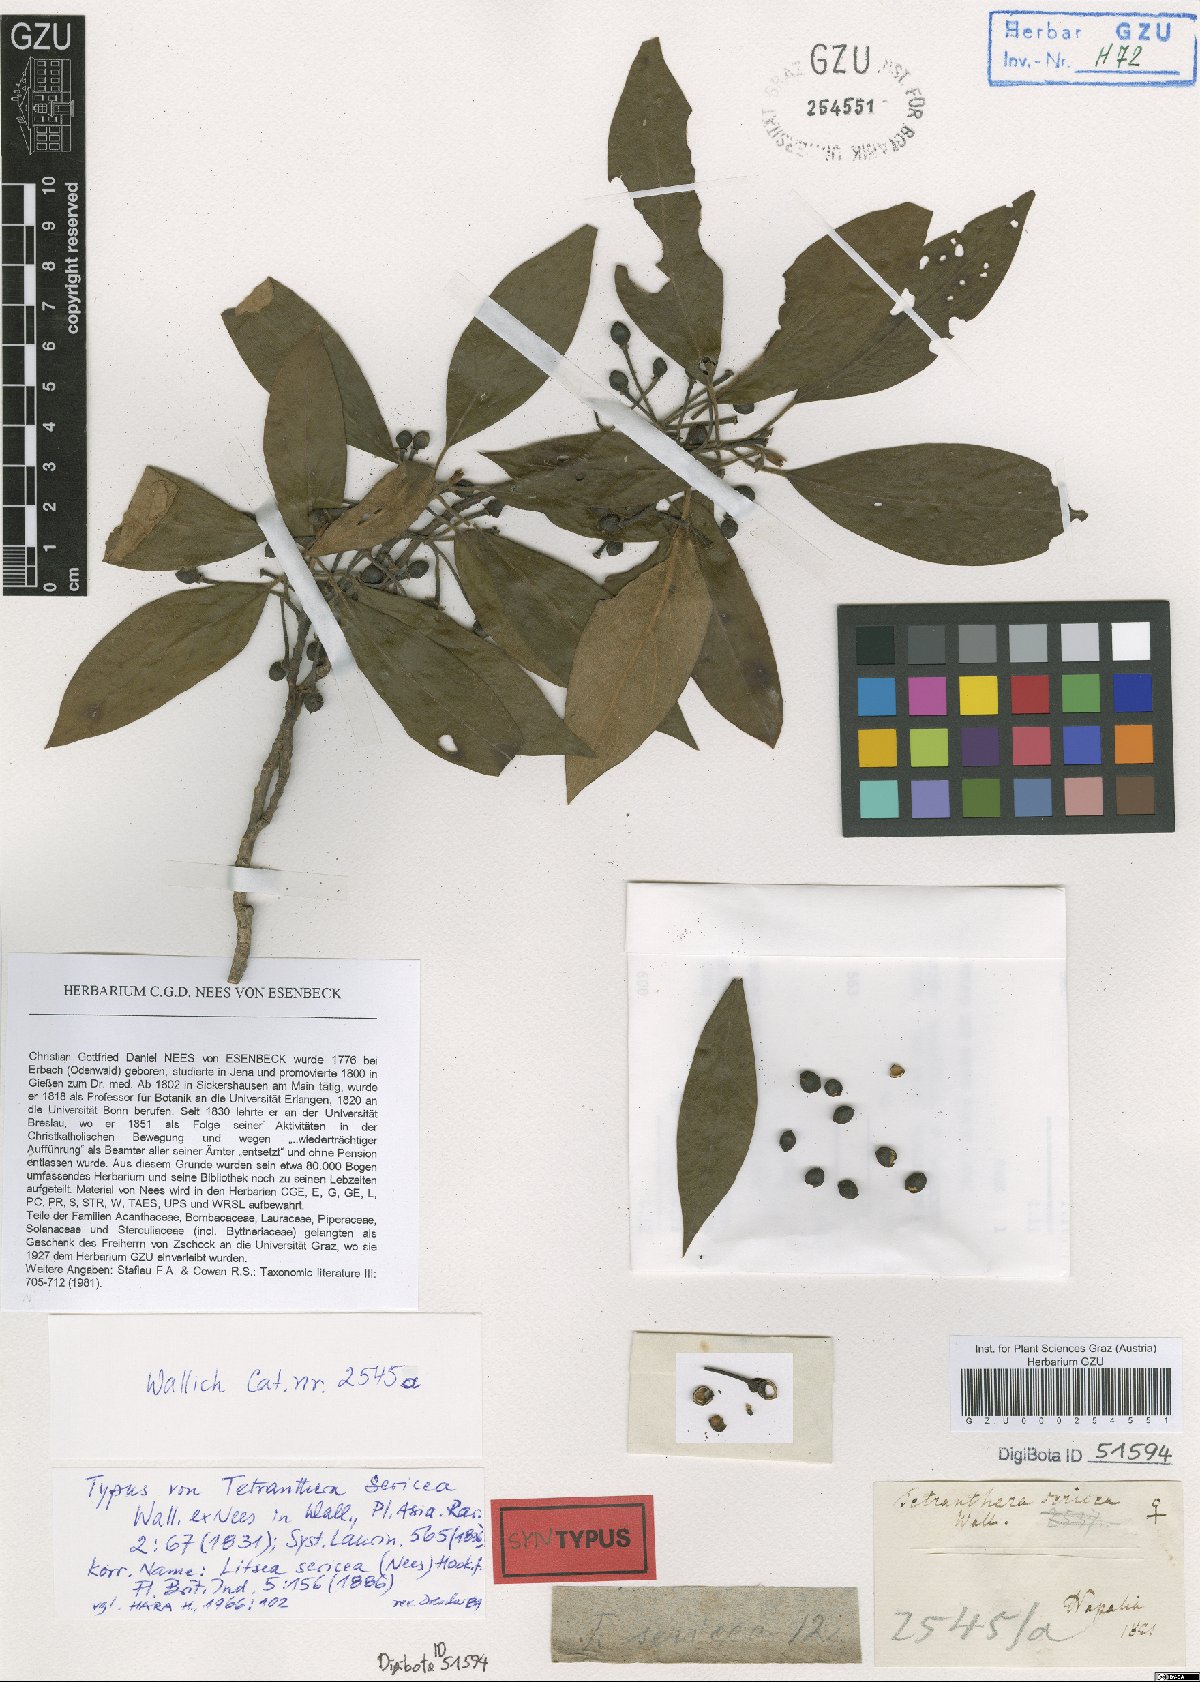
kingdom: Plantae
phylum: Tracheophyta
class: Magnoliopsida
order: Laurales
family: Lauraceae
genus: Litsea
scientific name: Litsea sericea
